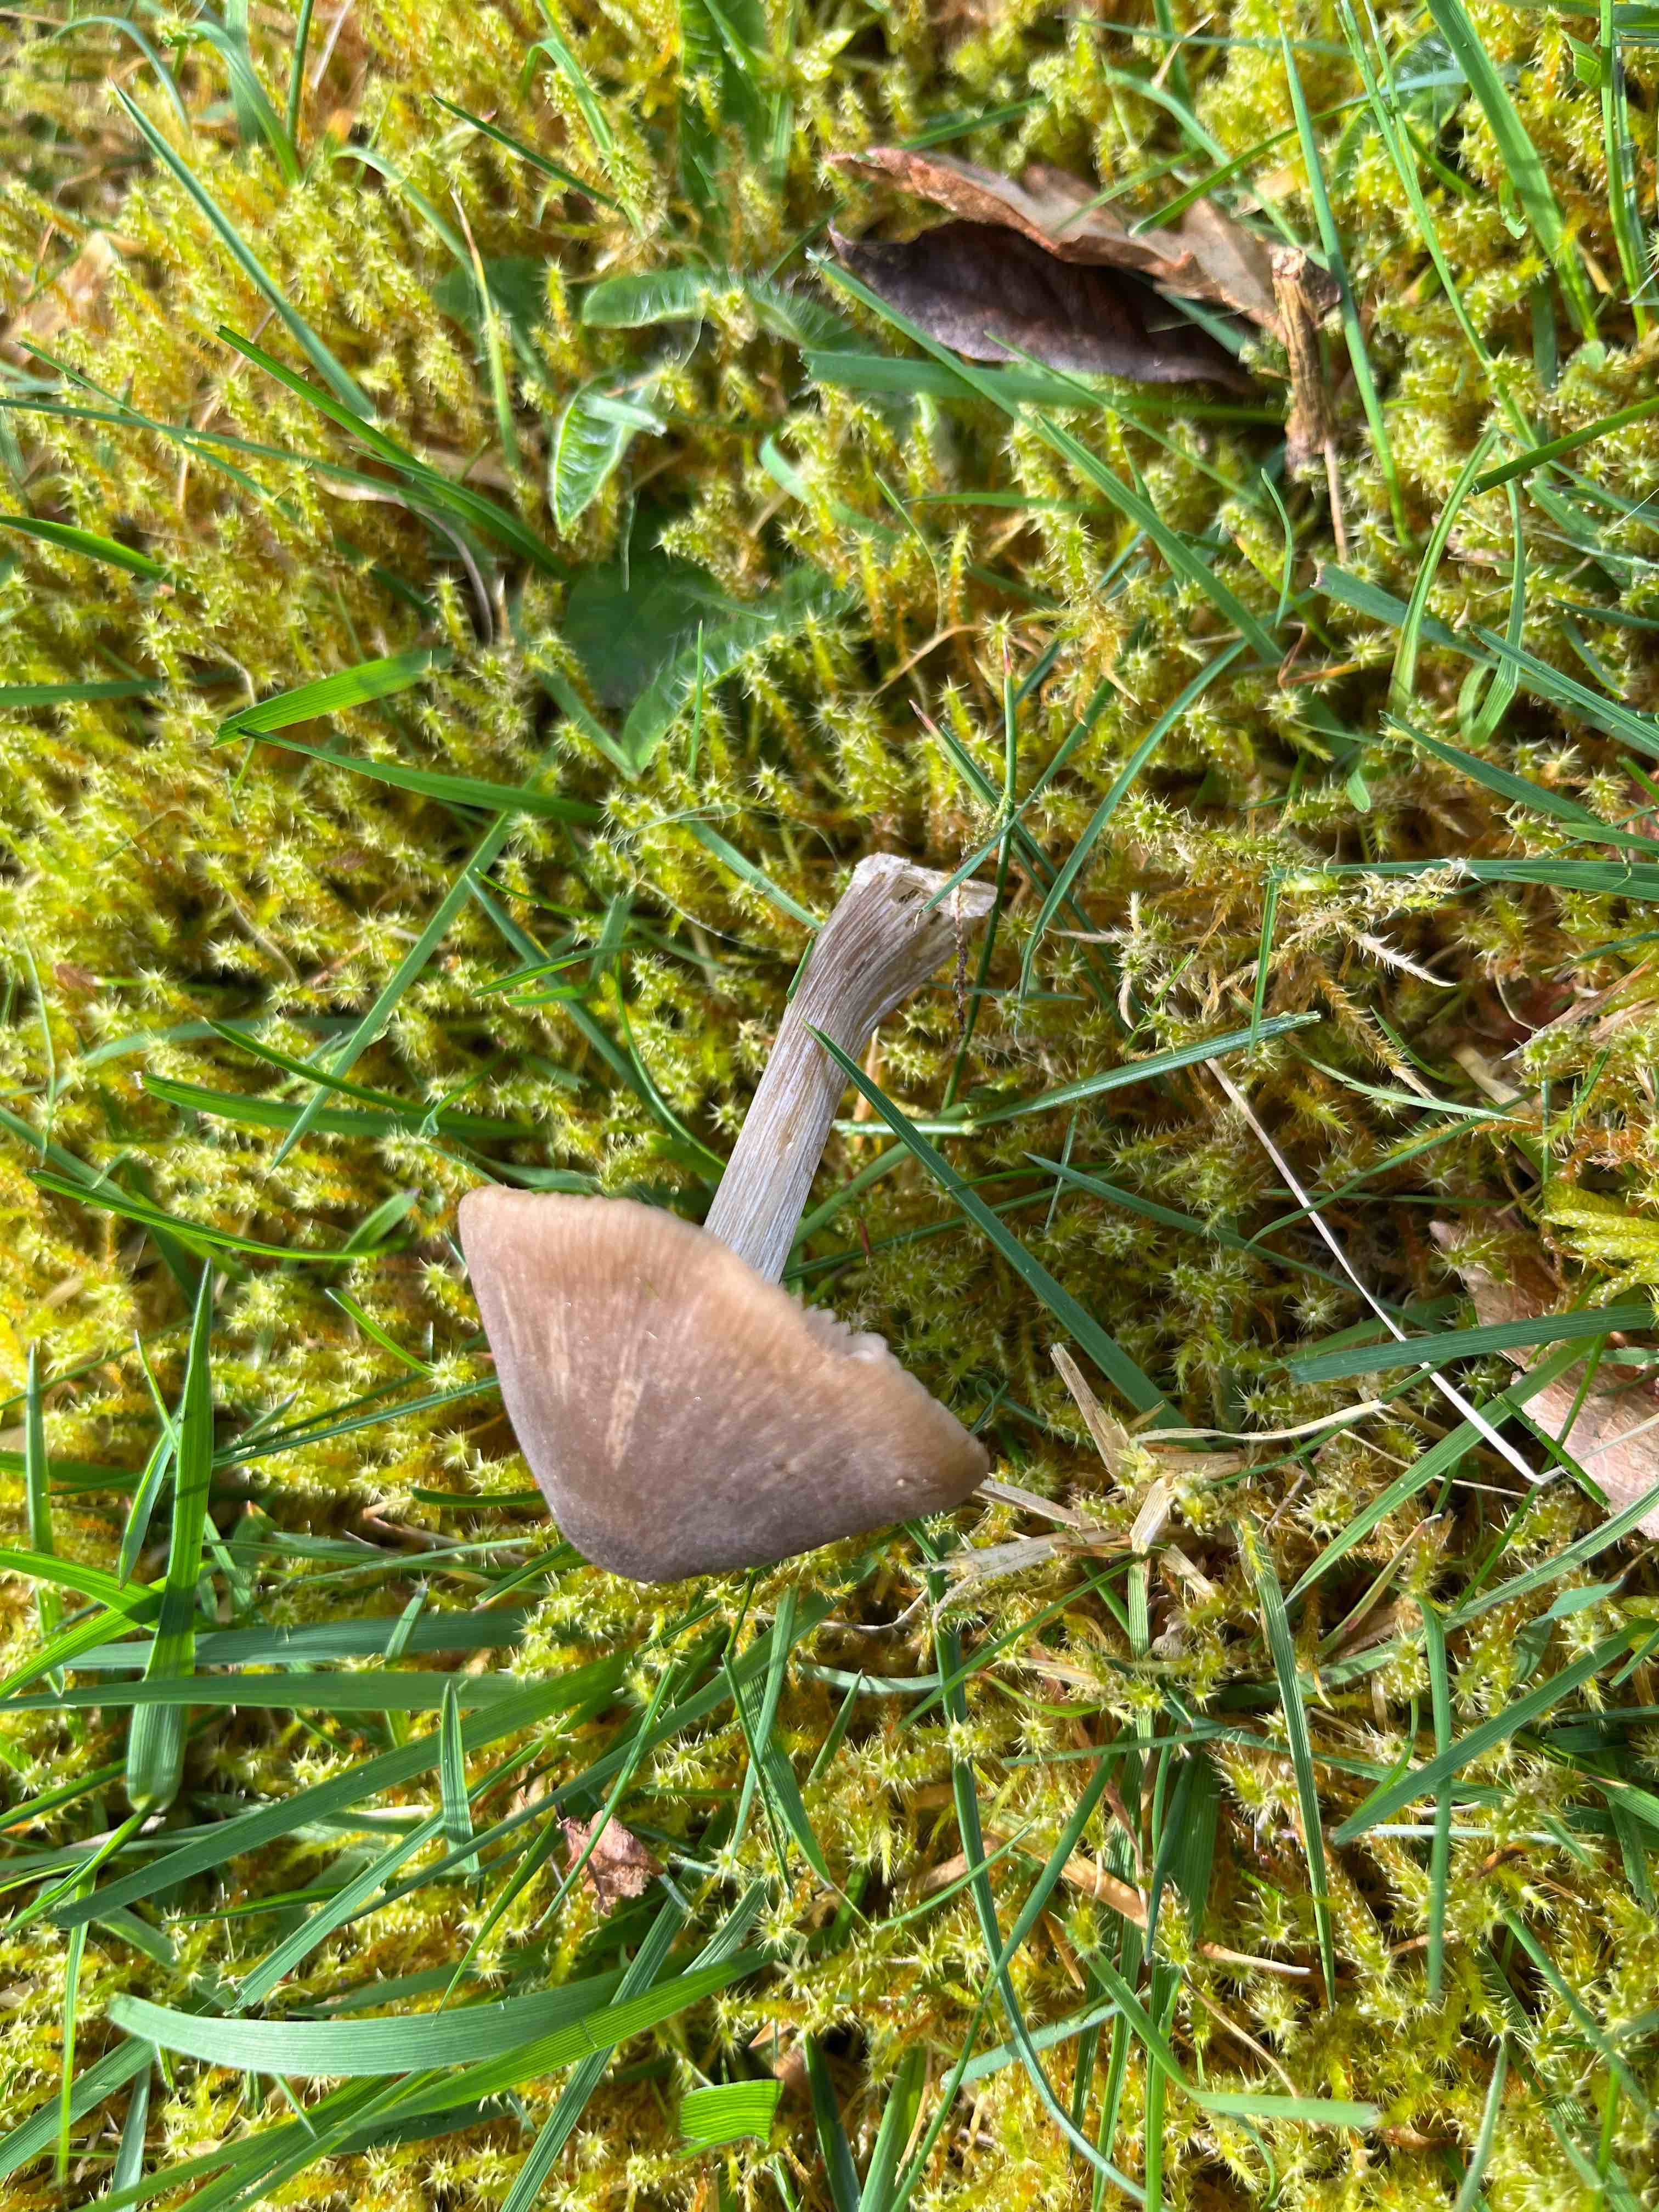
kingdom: Fungi
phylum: Basidiomycota
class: Agaricomycetes
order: Agaricales
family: Entolomataceae
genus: Entoloma
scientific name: Entoloma
